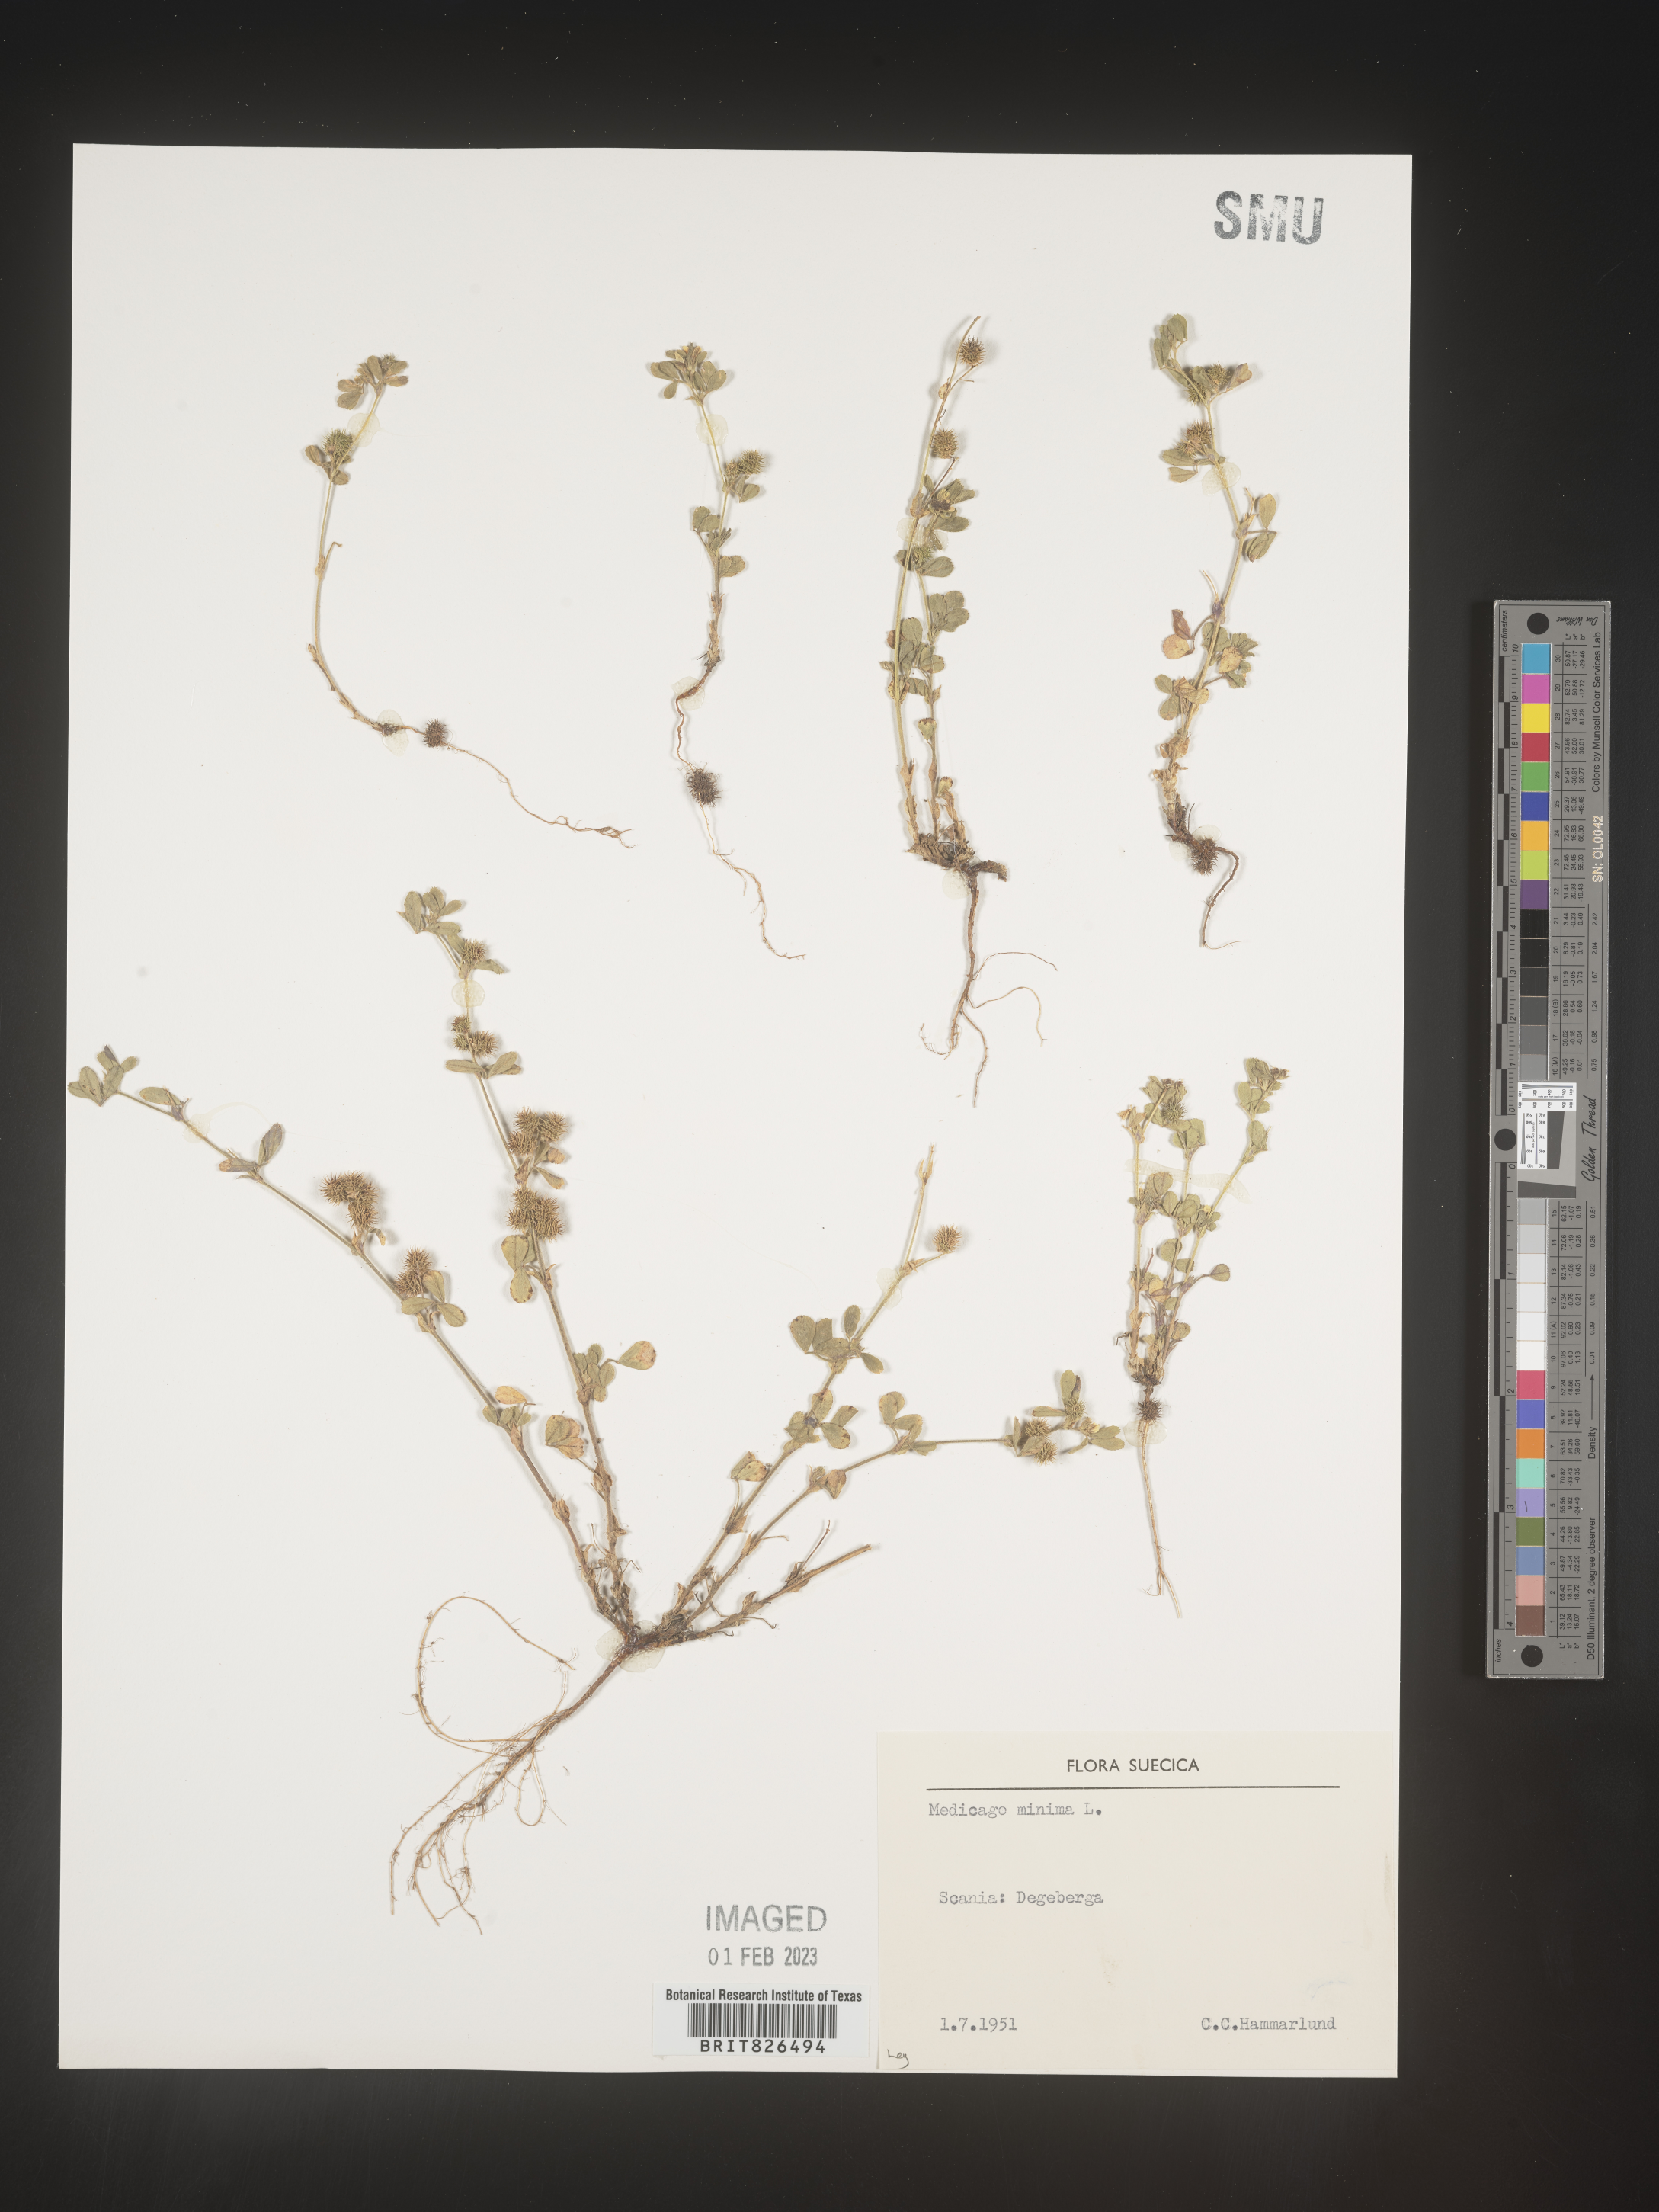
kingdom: Plantae
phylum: Tracheophyta
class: Magnoliopsida
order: Fabales
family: Fabaceae
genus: Medicago
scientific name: Medicago
